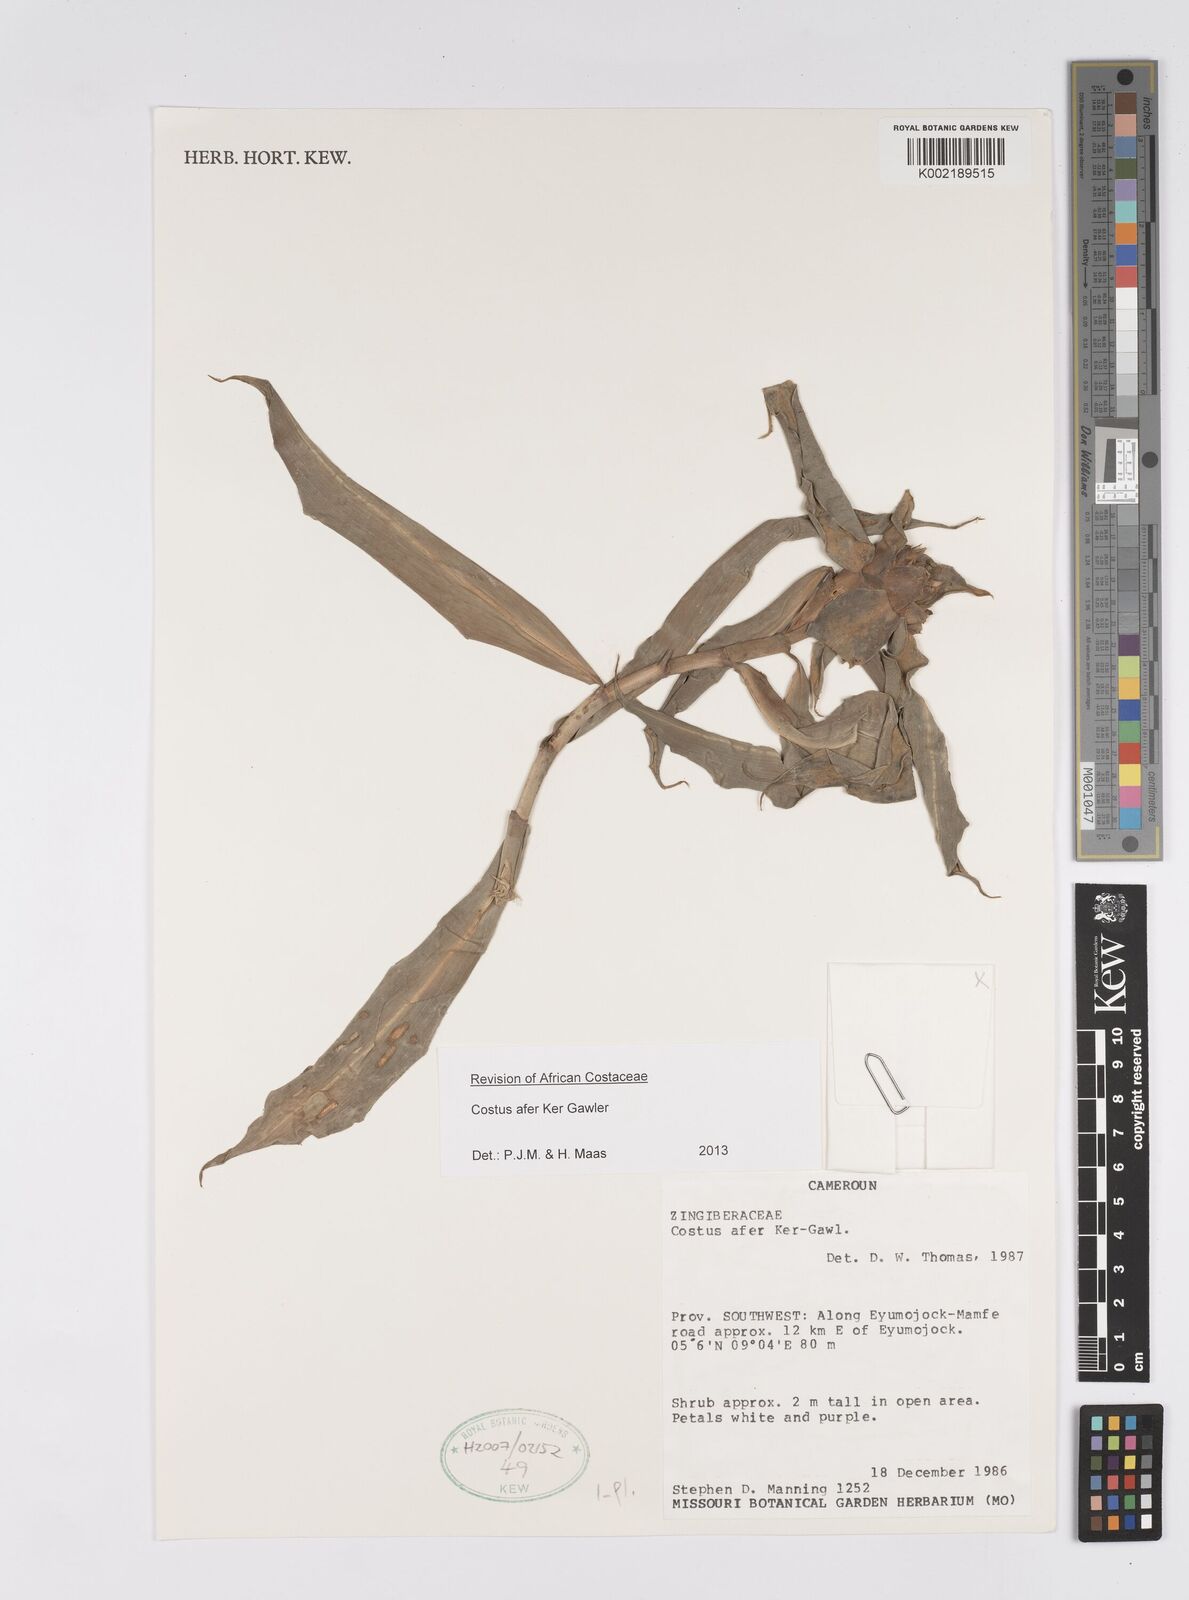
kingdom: Plantae
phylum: Tracheophyta
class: Liliopsida
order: Zingiberales
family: Costaceae
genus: Costus
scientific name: Costus afer
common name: Spiral-ginger
